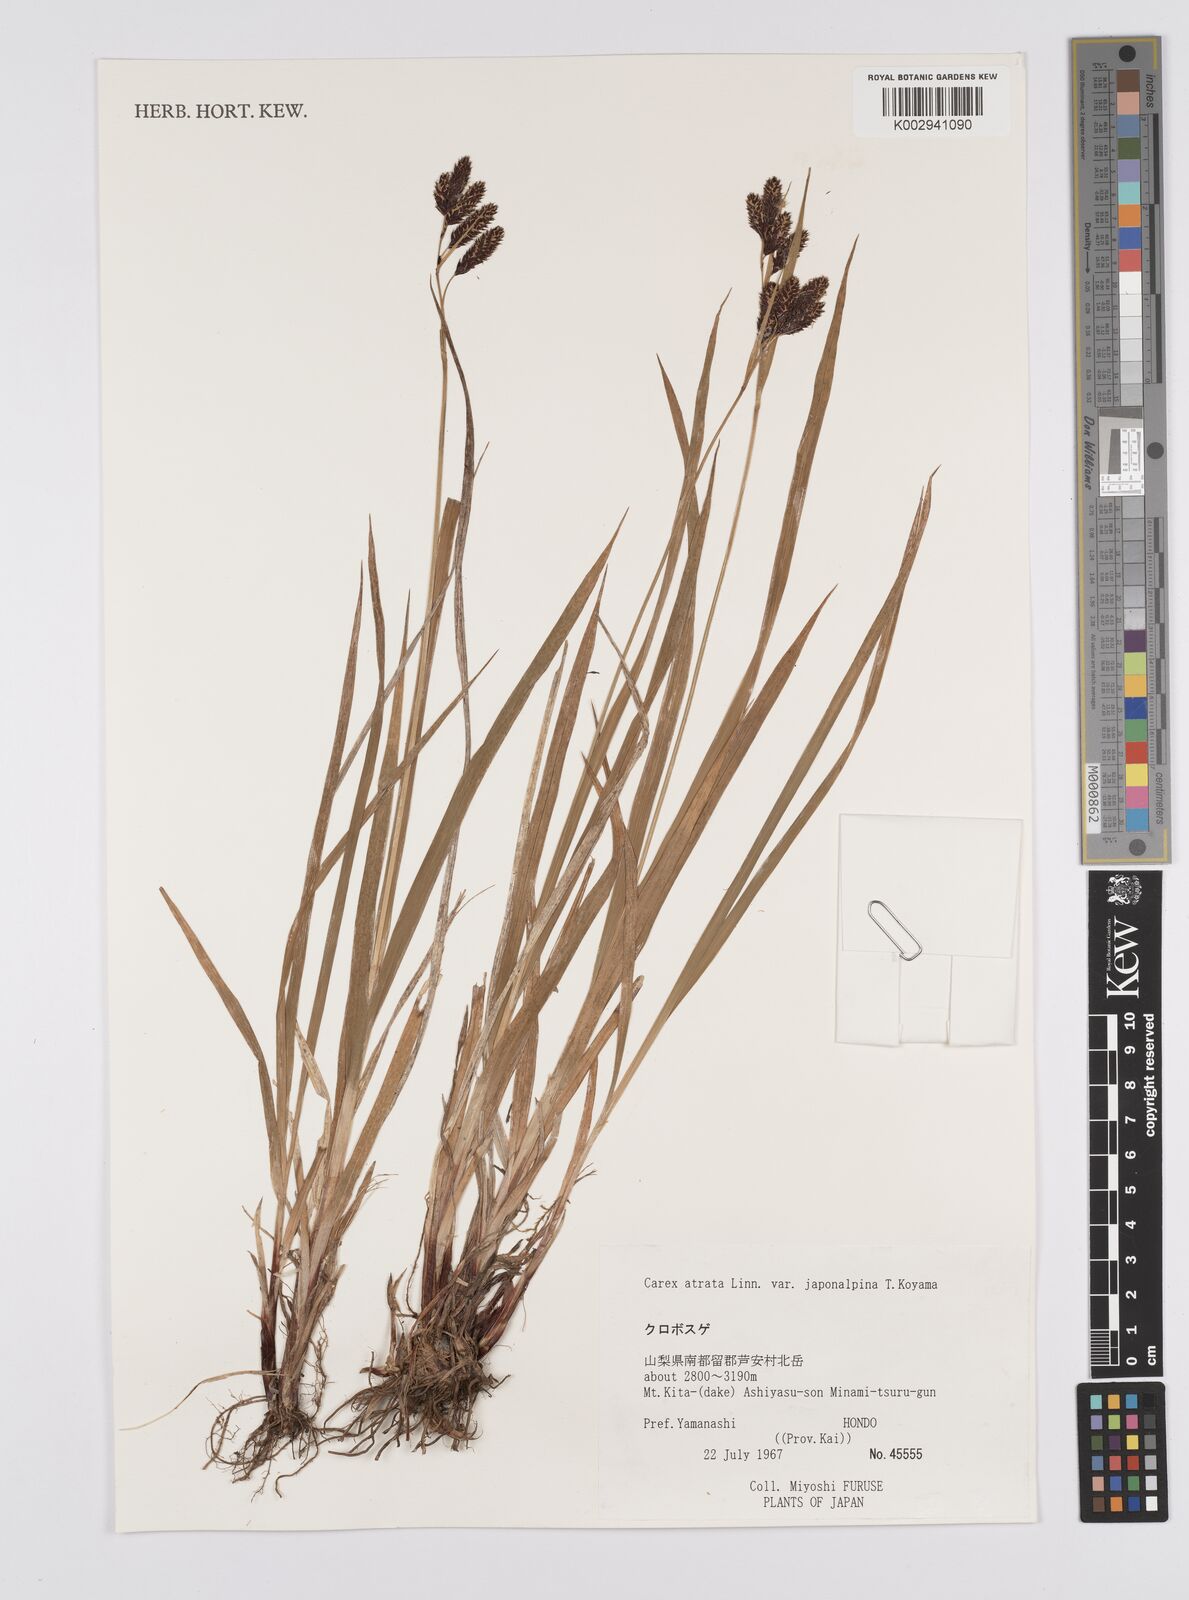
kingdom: Plantae
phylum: Tracheophyta
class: Liliopsida
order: Poales
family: Cyperaceae
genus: Carex
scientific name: Carex tristachya
